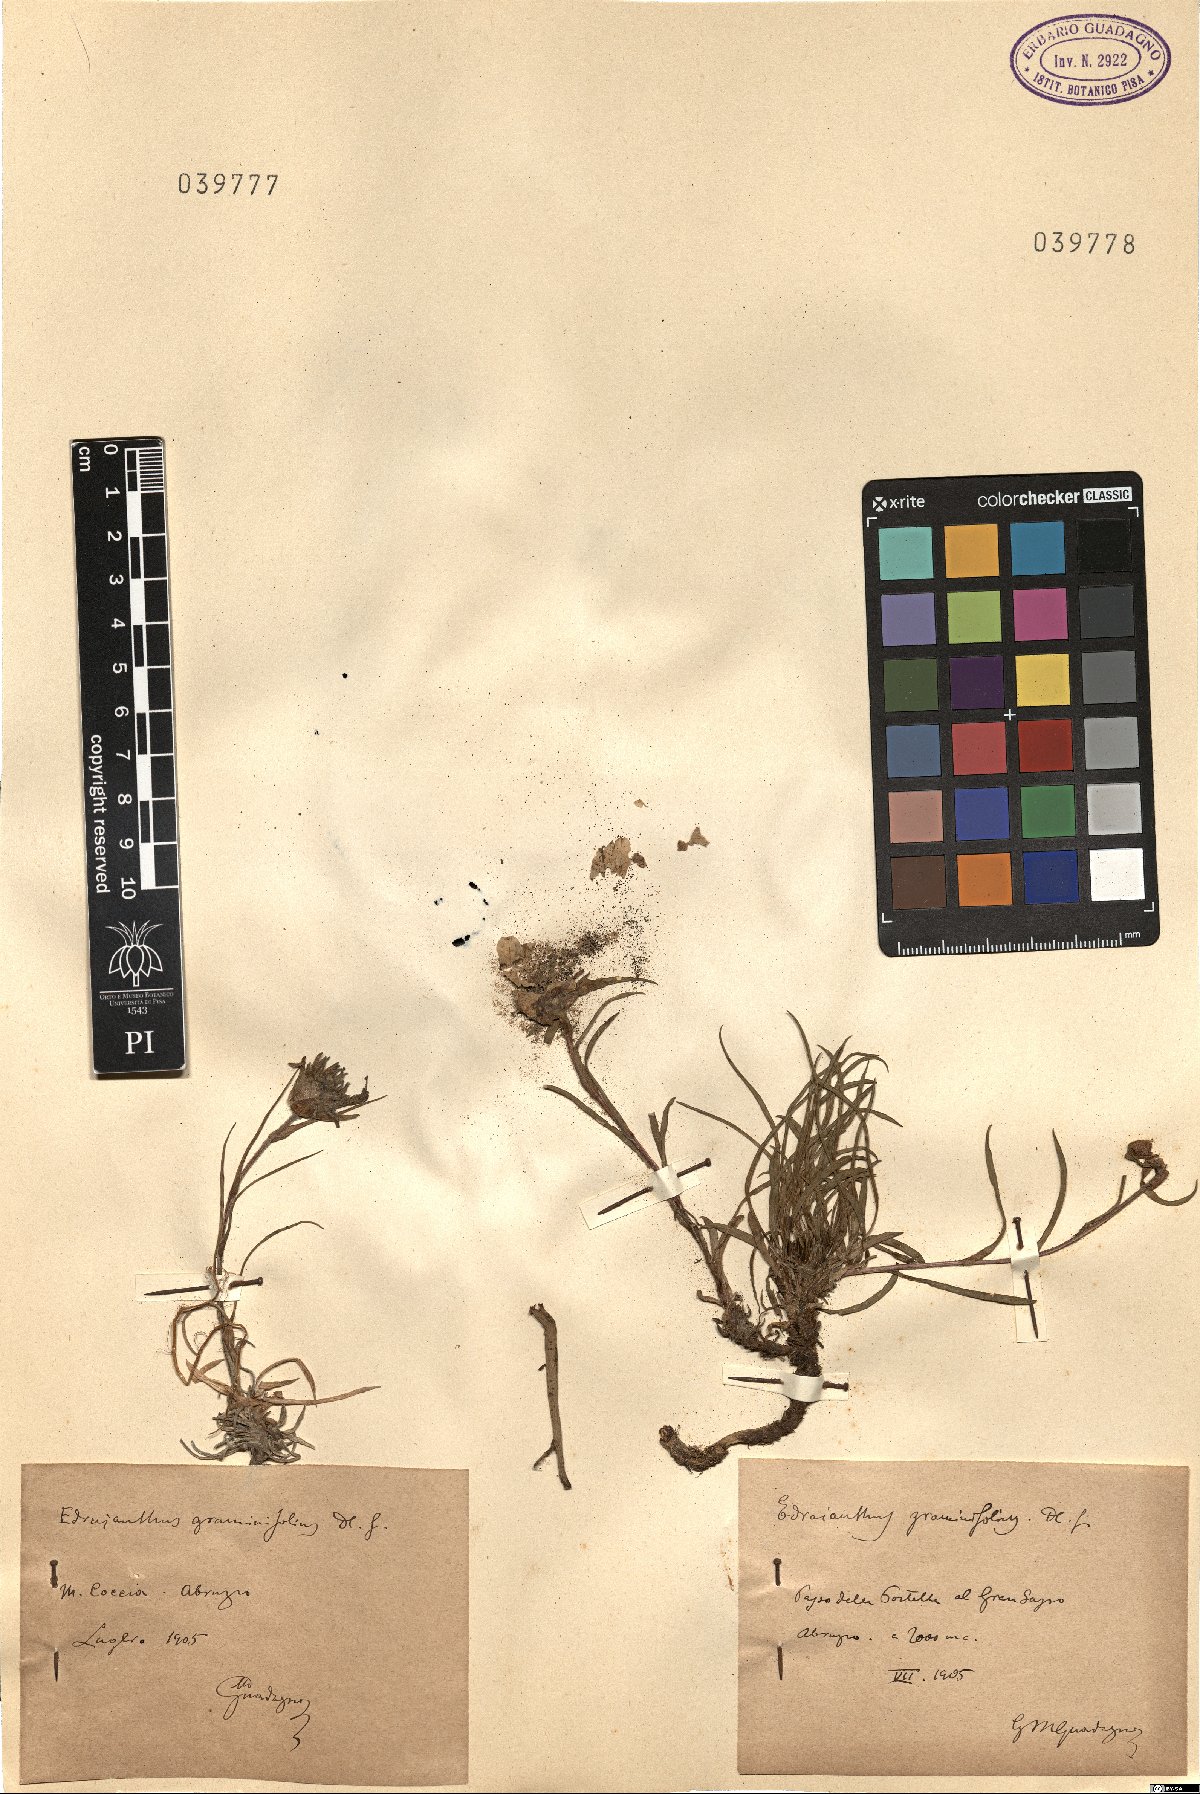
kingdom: Plantae
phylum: Tracheophyta
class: Magnoliopsida
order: Asterales
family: Campanulaceae
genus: Edraianthus
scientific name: Edraianthus graminifolius
